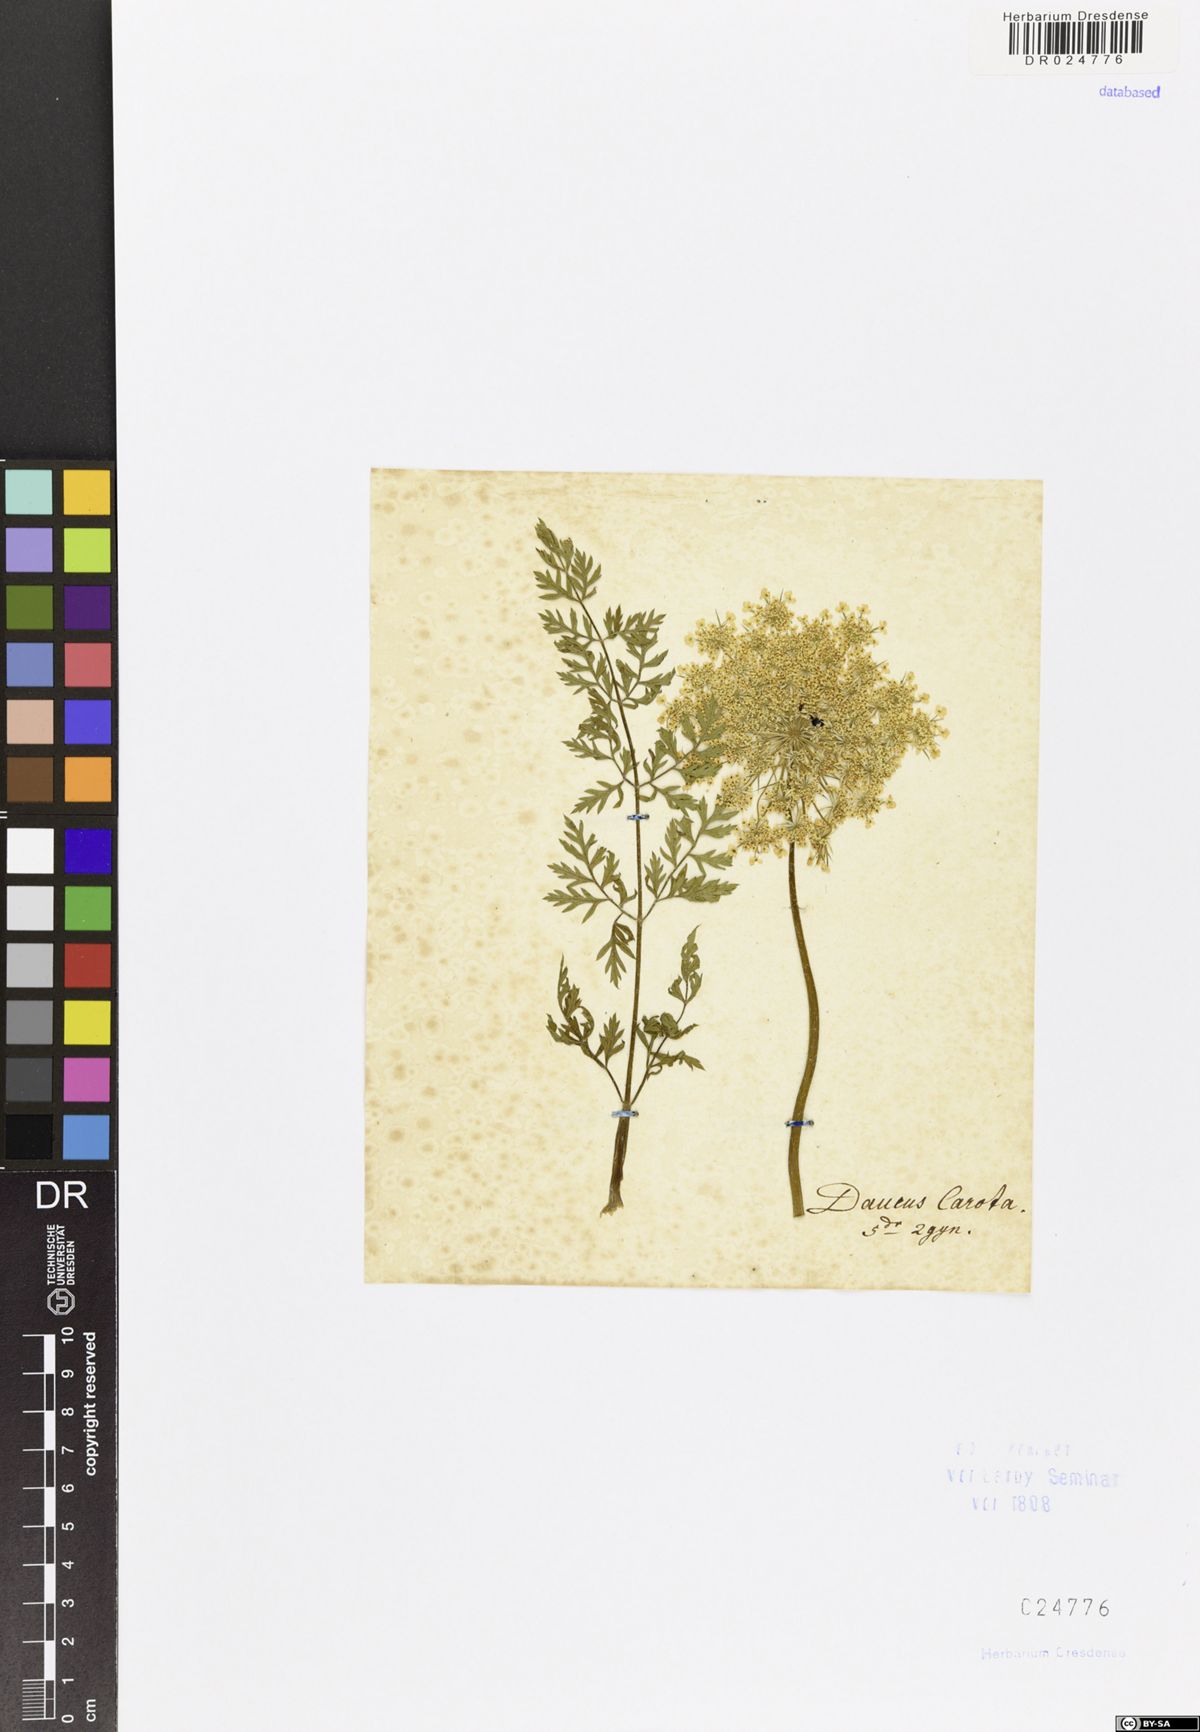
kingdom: Plantae
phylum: Tracheophyta
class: Magnoliopsida
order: Apiales
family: Apiaceae
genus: Daucus
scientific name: Daucus carota
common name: Wild carrot
